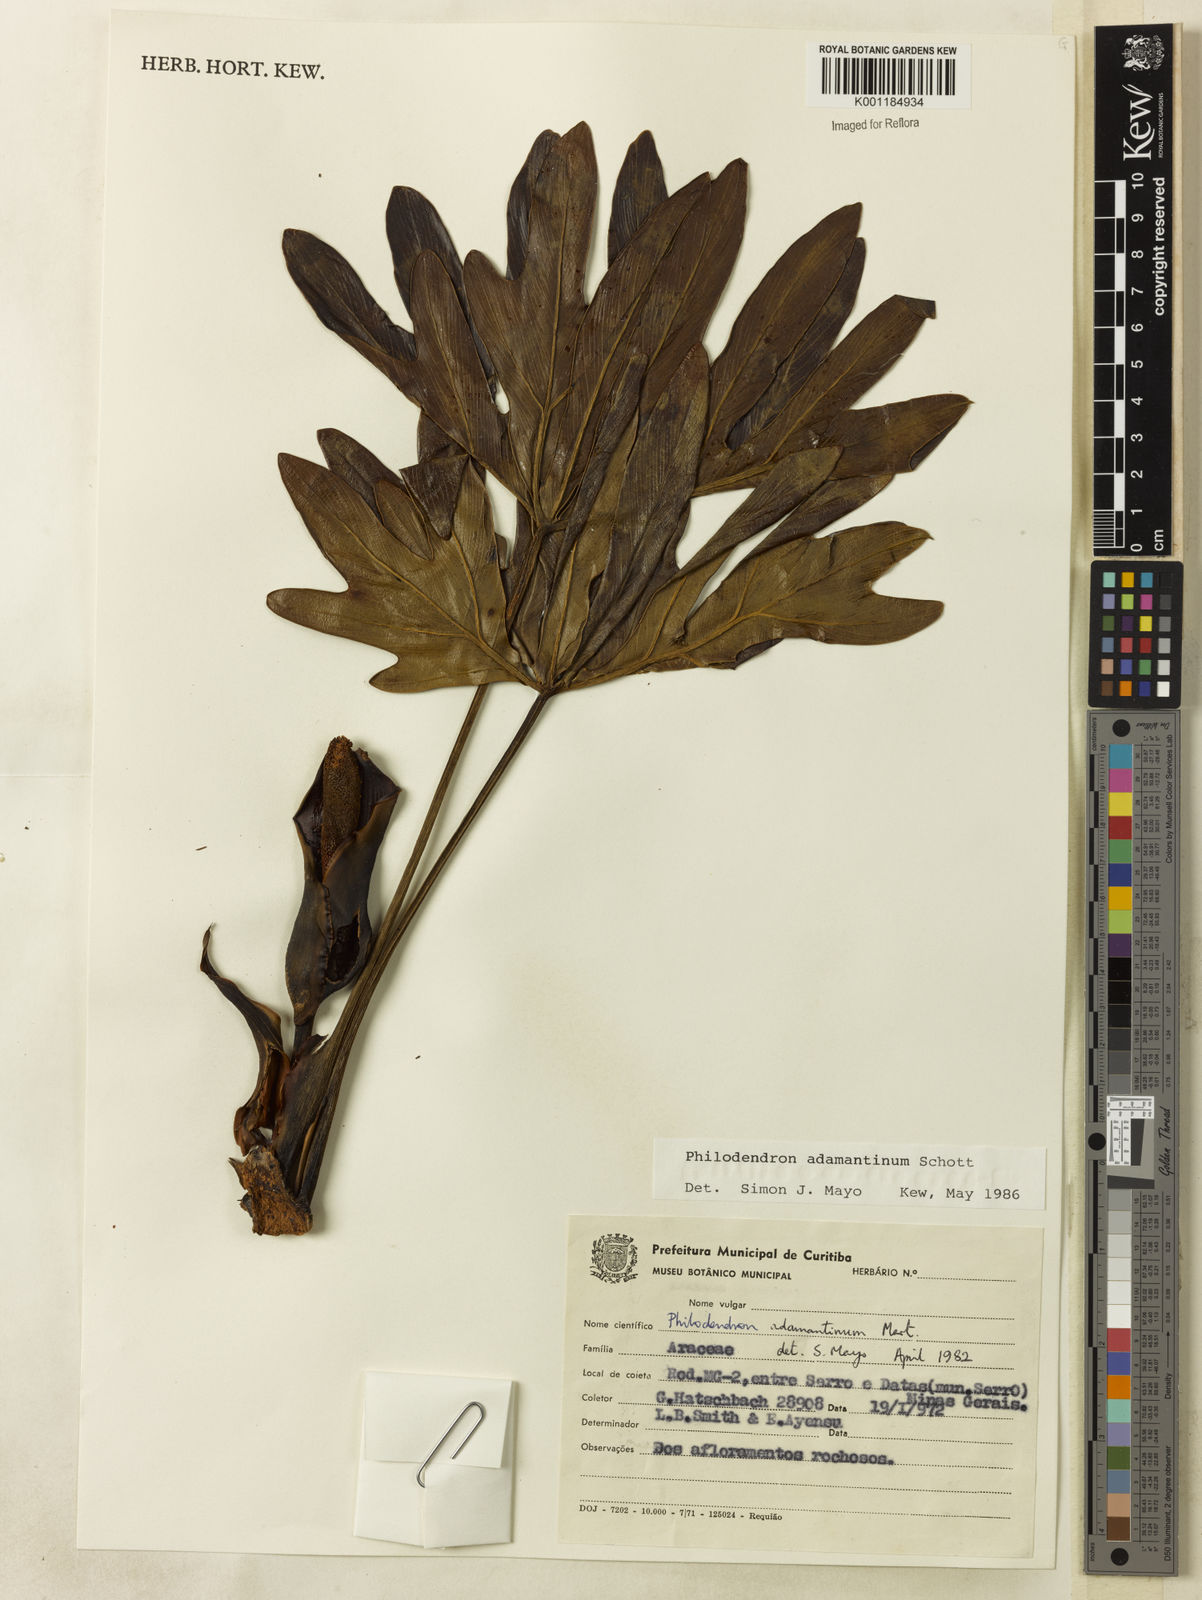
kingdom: Plantae
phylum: Tracheophyta
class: Liliopsida
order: Alismatales
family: Araceae
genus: Thaumatophyllum
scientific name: Thaumatophyllum adamantinum
